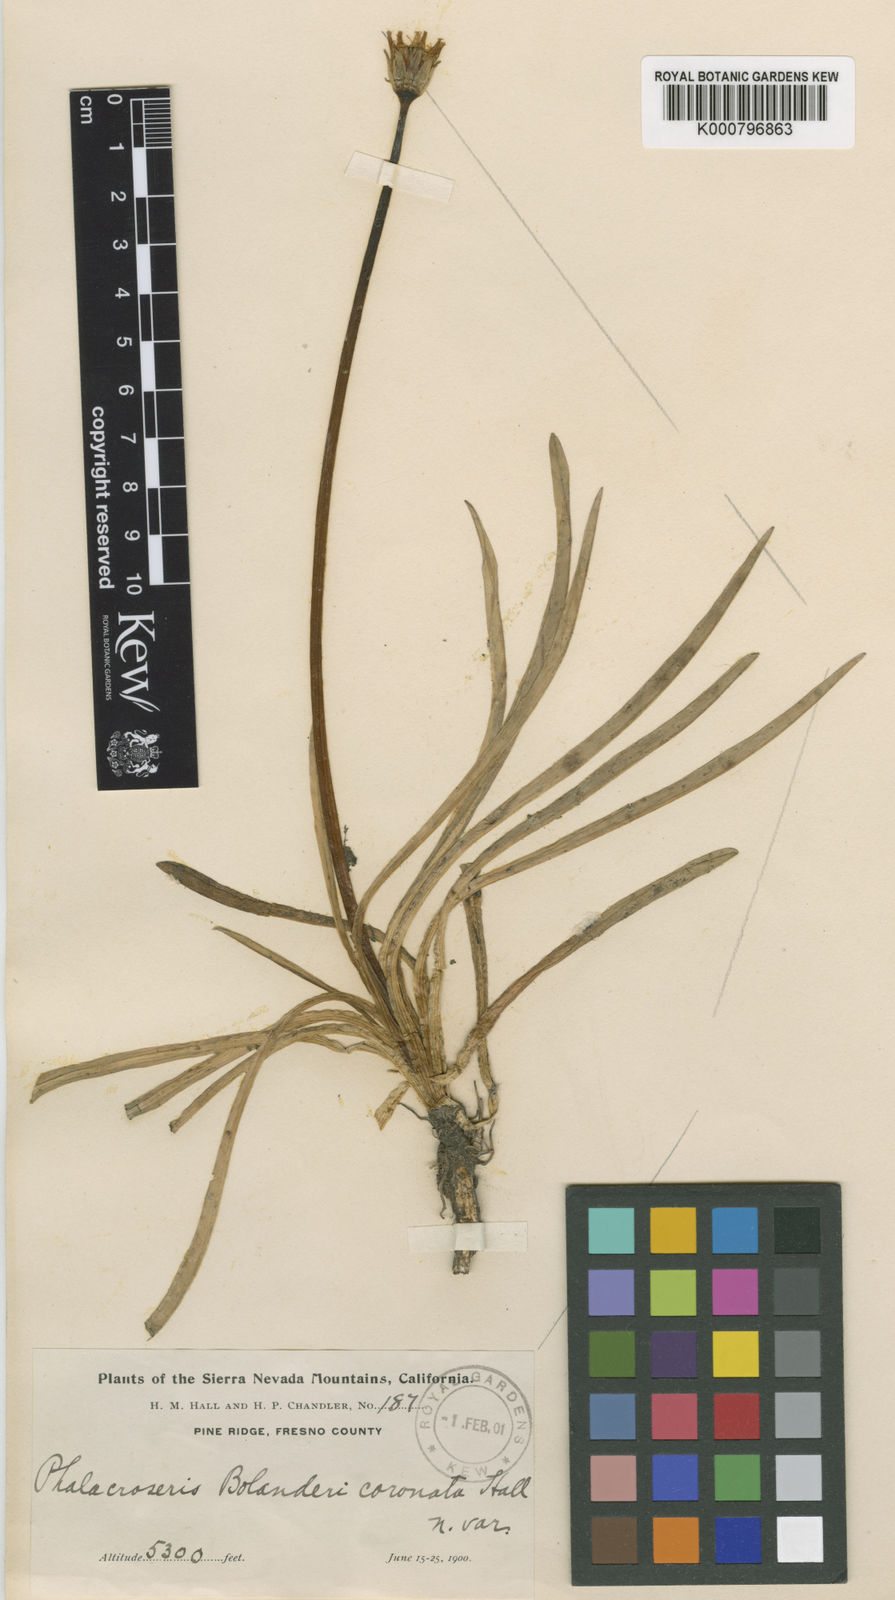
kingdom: Plantae
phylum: Tracheophyta
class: Magnoliopsida
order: Asterales
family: Asteraceae
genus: Phalacroseris
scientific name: Phalacroseris bolanderi
